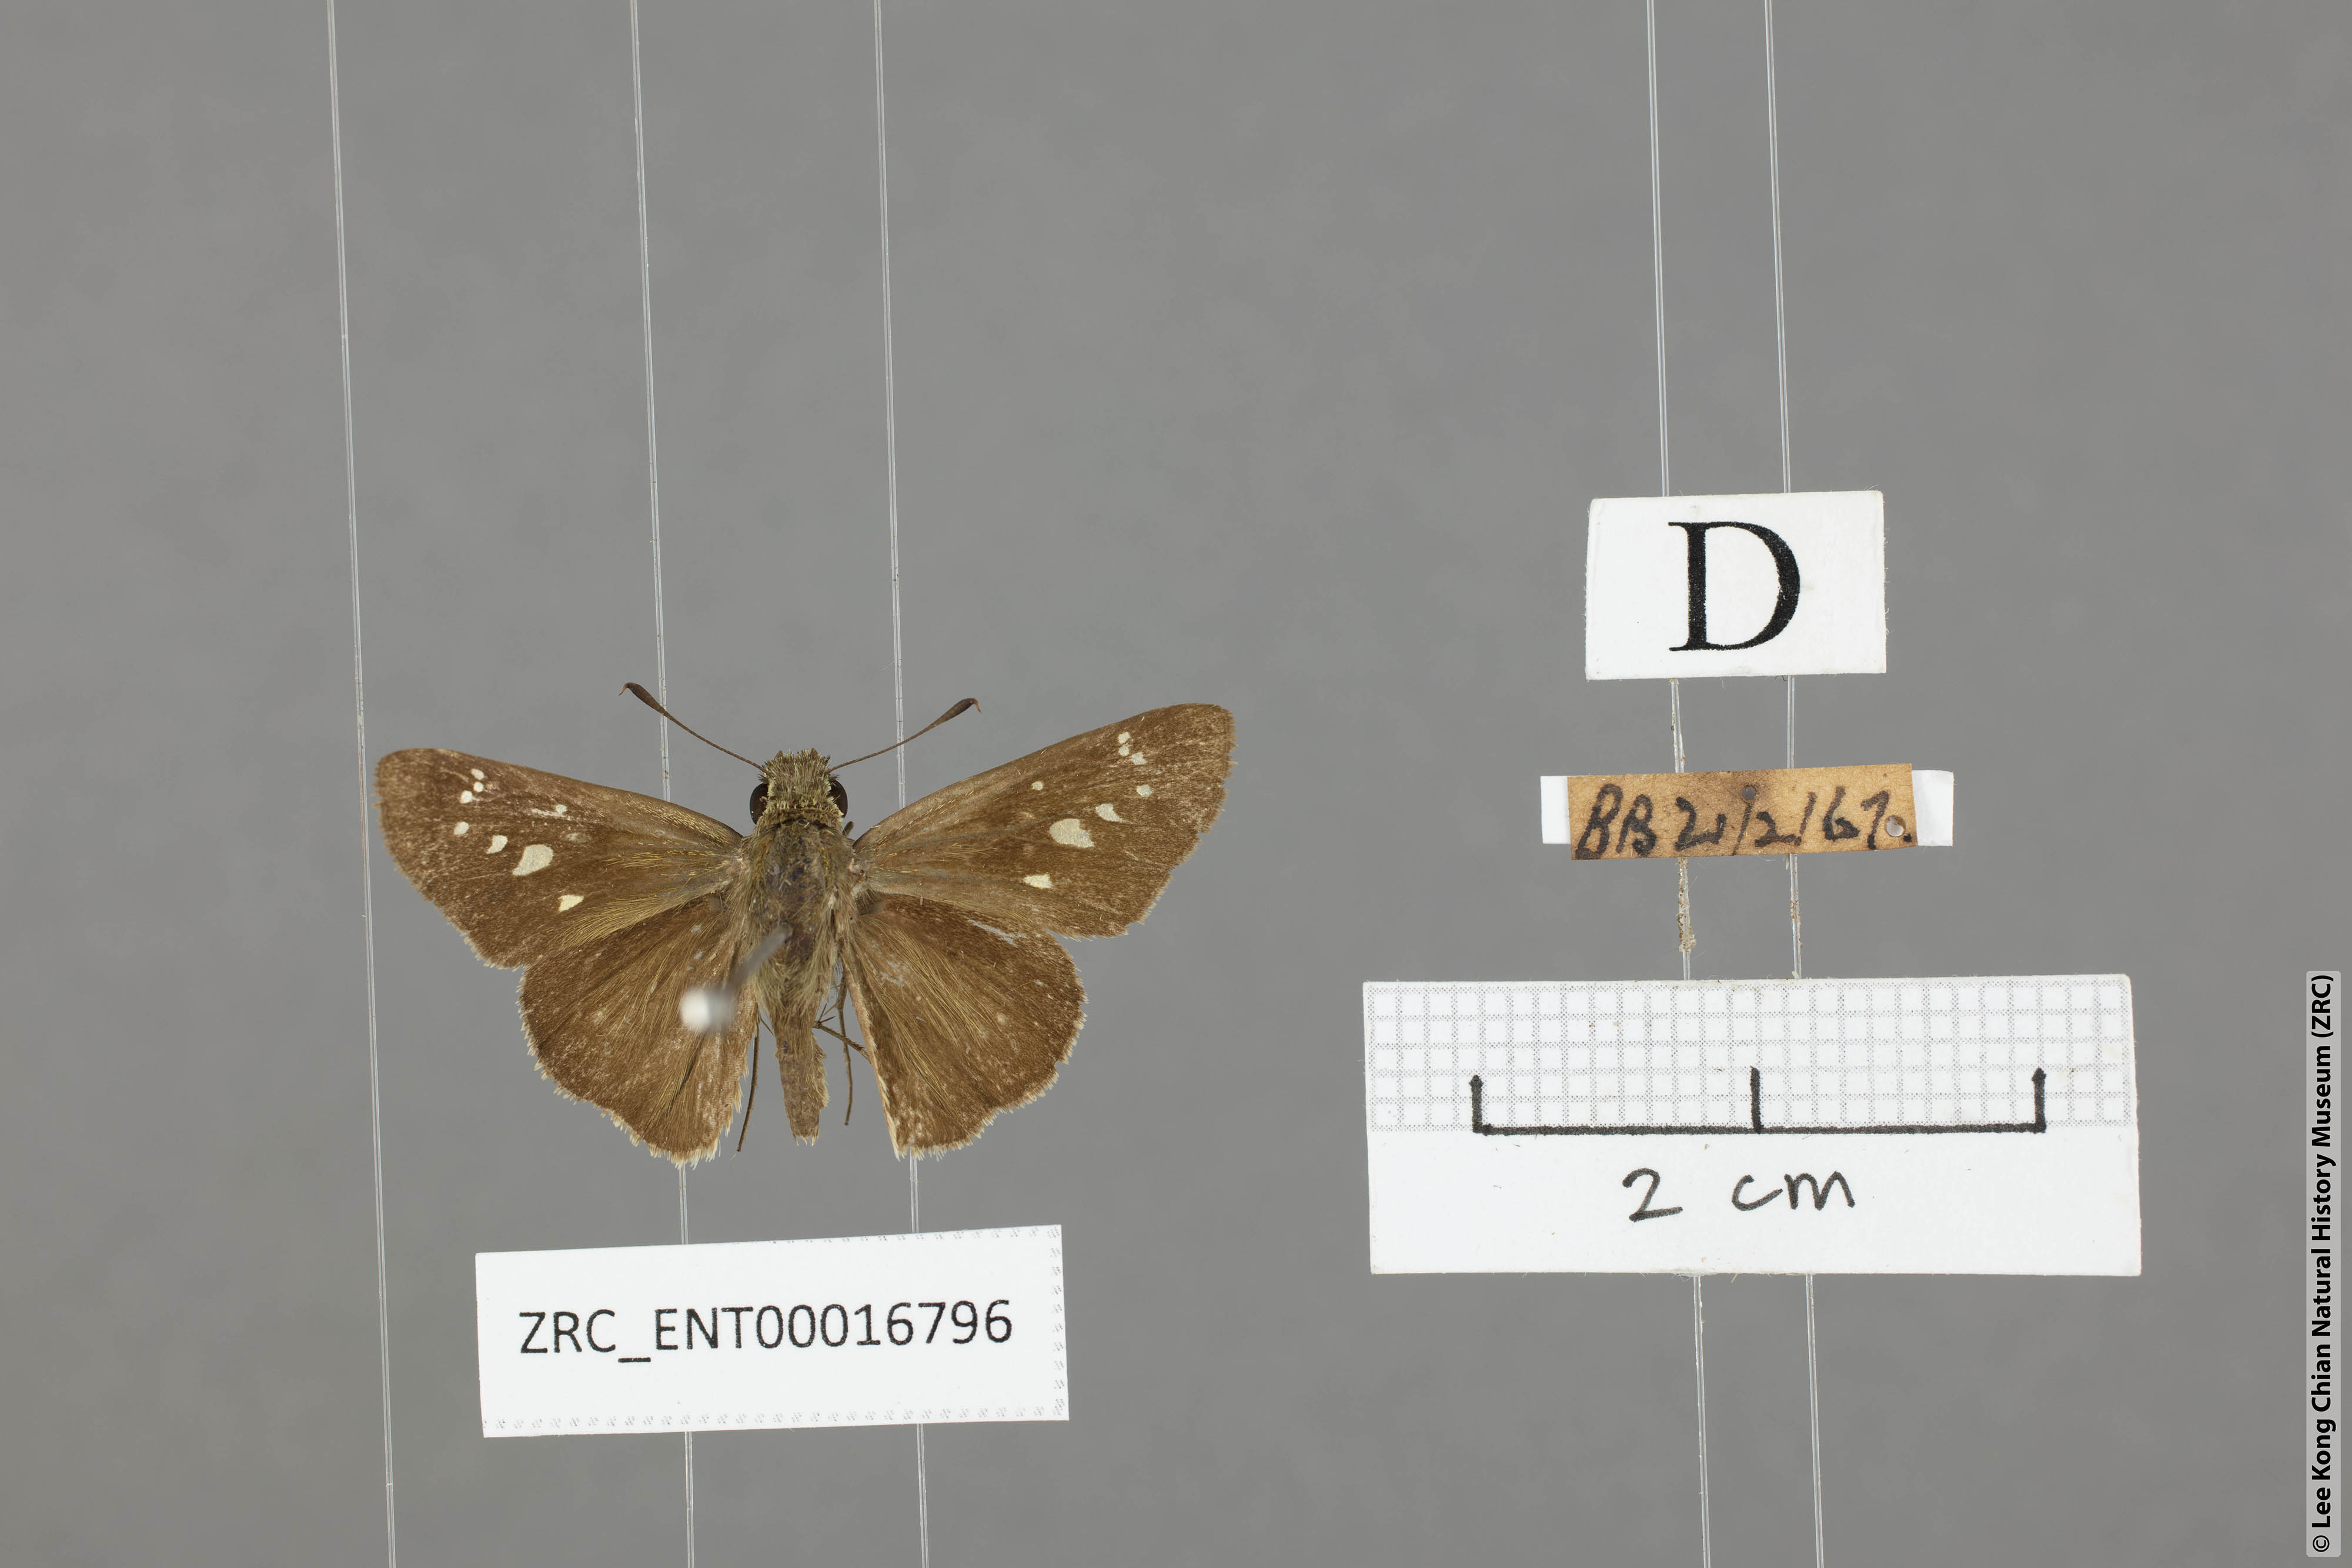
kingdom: Animalia
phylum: Arthropoda
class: Insecta
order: Lepidoptera
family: Hesperiidae
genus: Borbo
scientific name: Borbo cinnara
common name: Formosan swift
